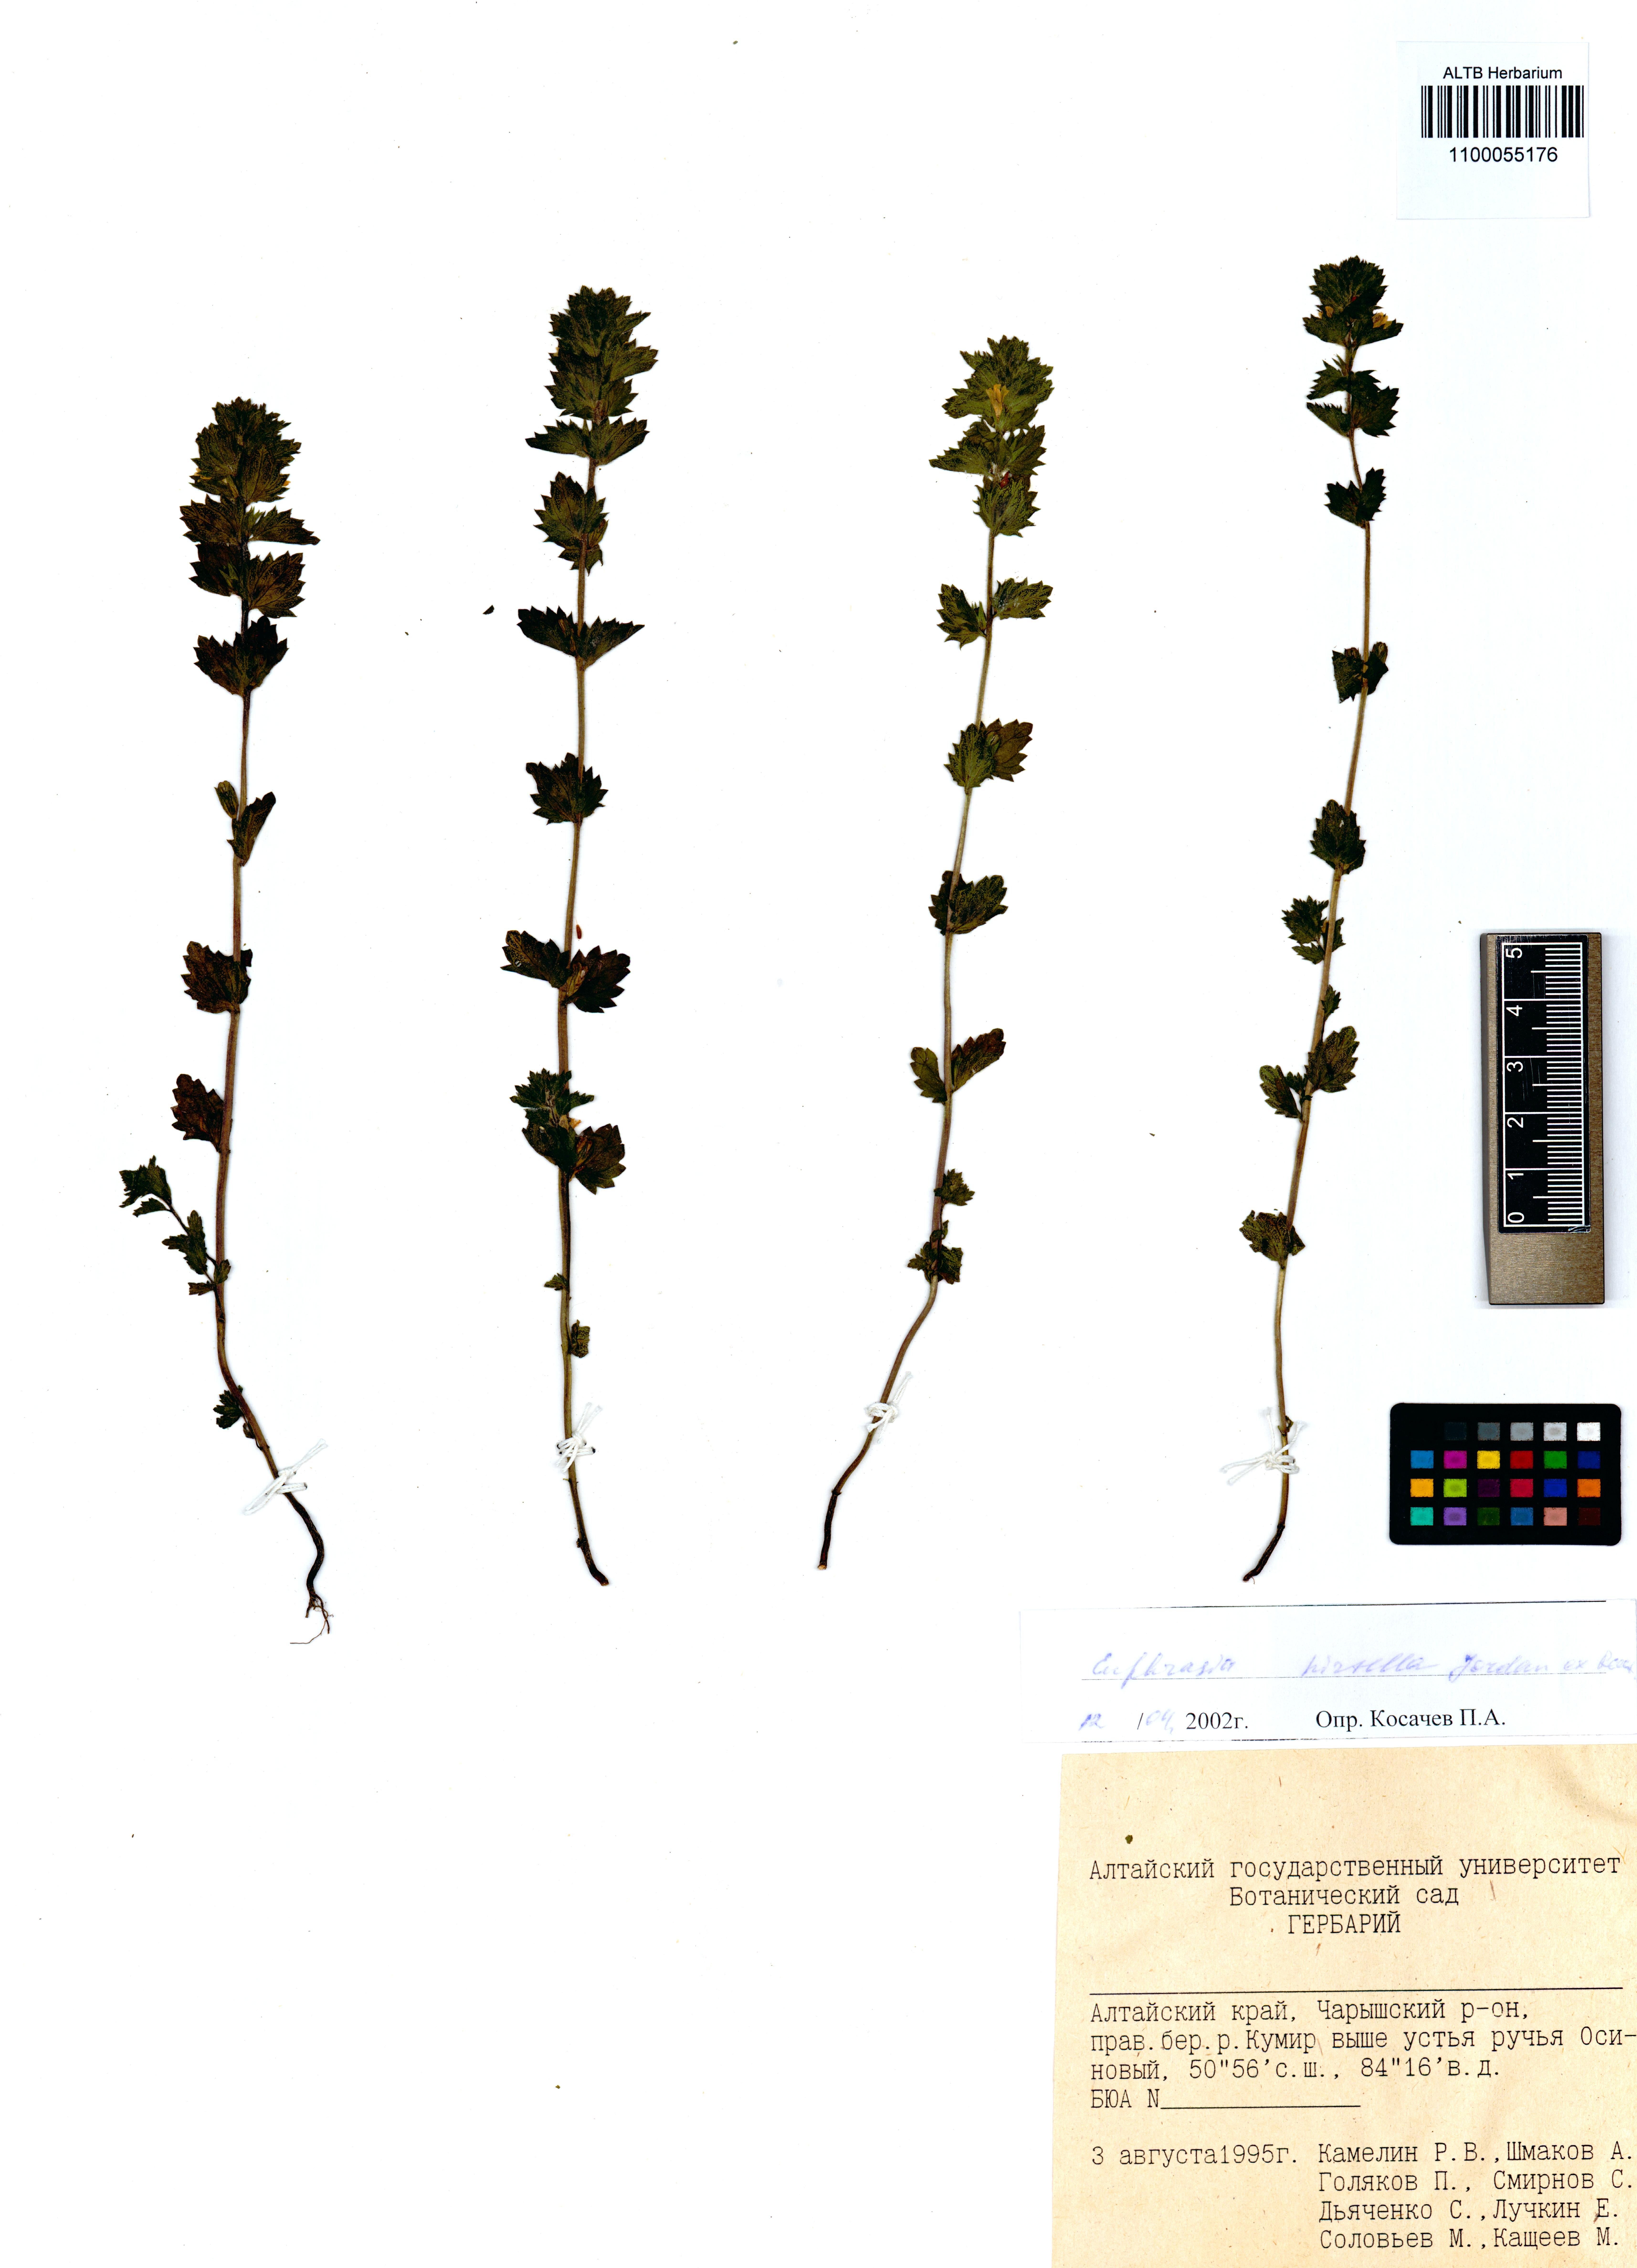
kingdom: Plantae
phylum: Tracheophyta
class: Magnoliopsida
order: Lamiales
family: Orobanchaceae
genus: Euphrasia
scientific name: Euphrasia hirtella
